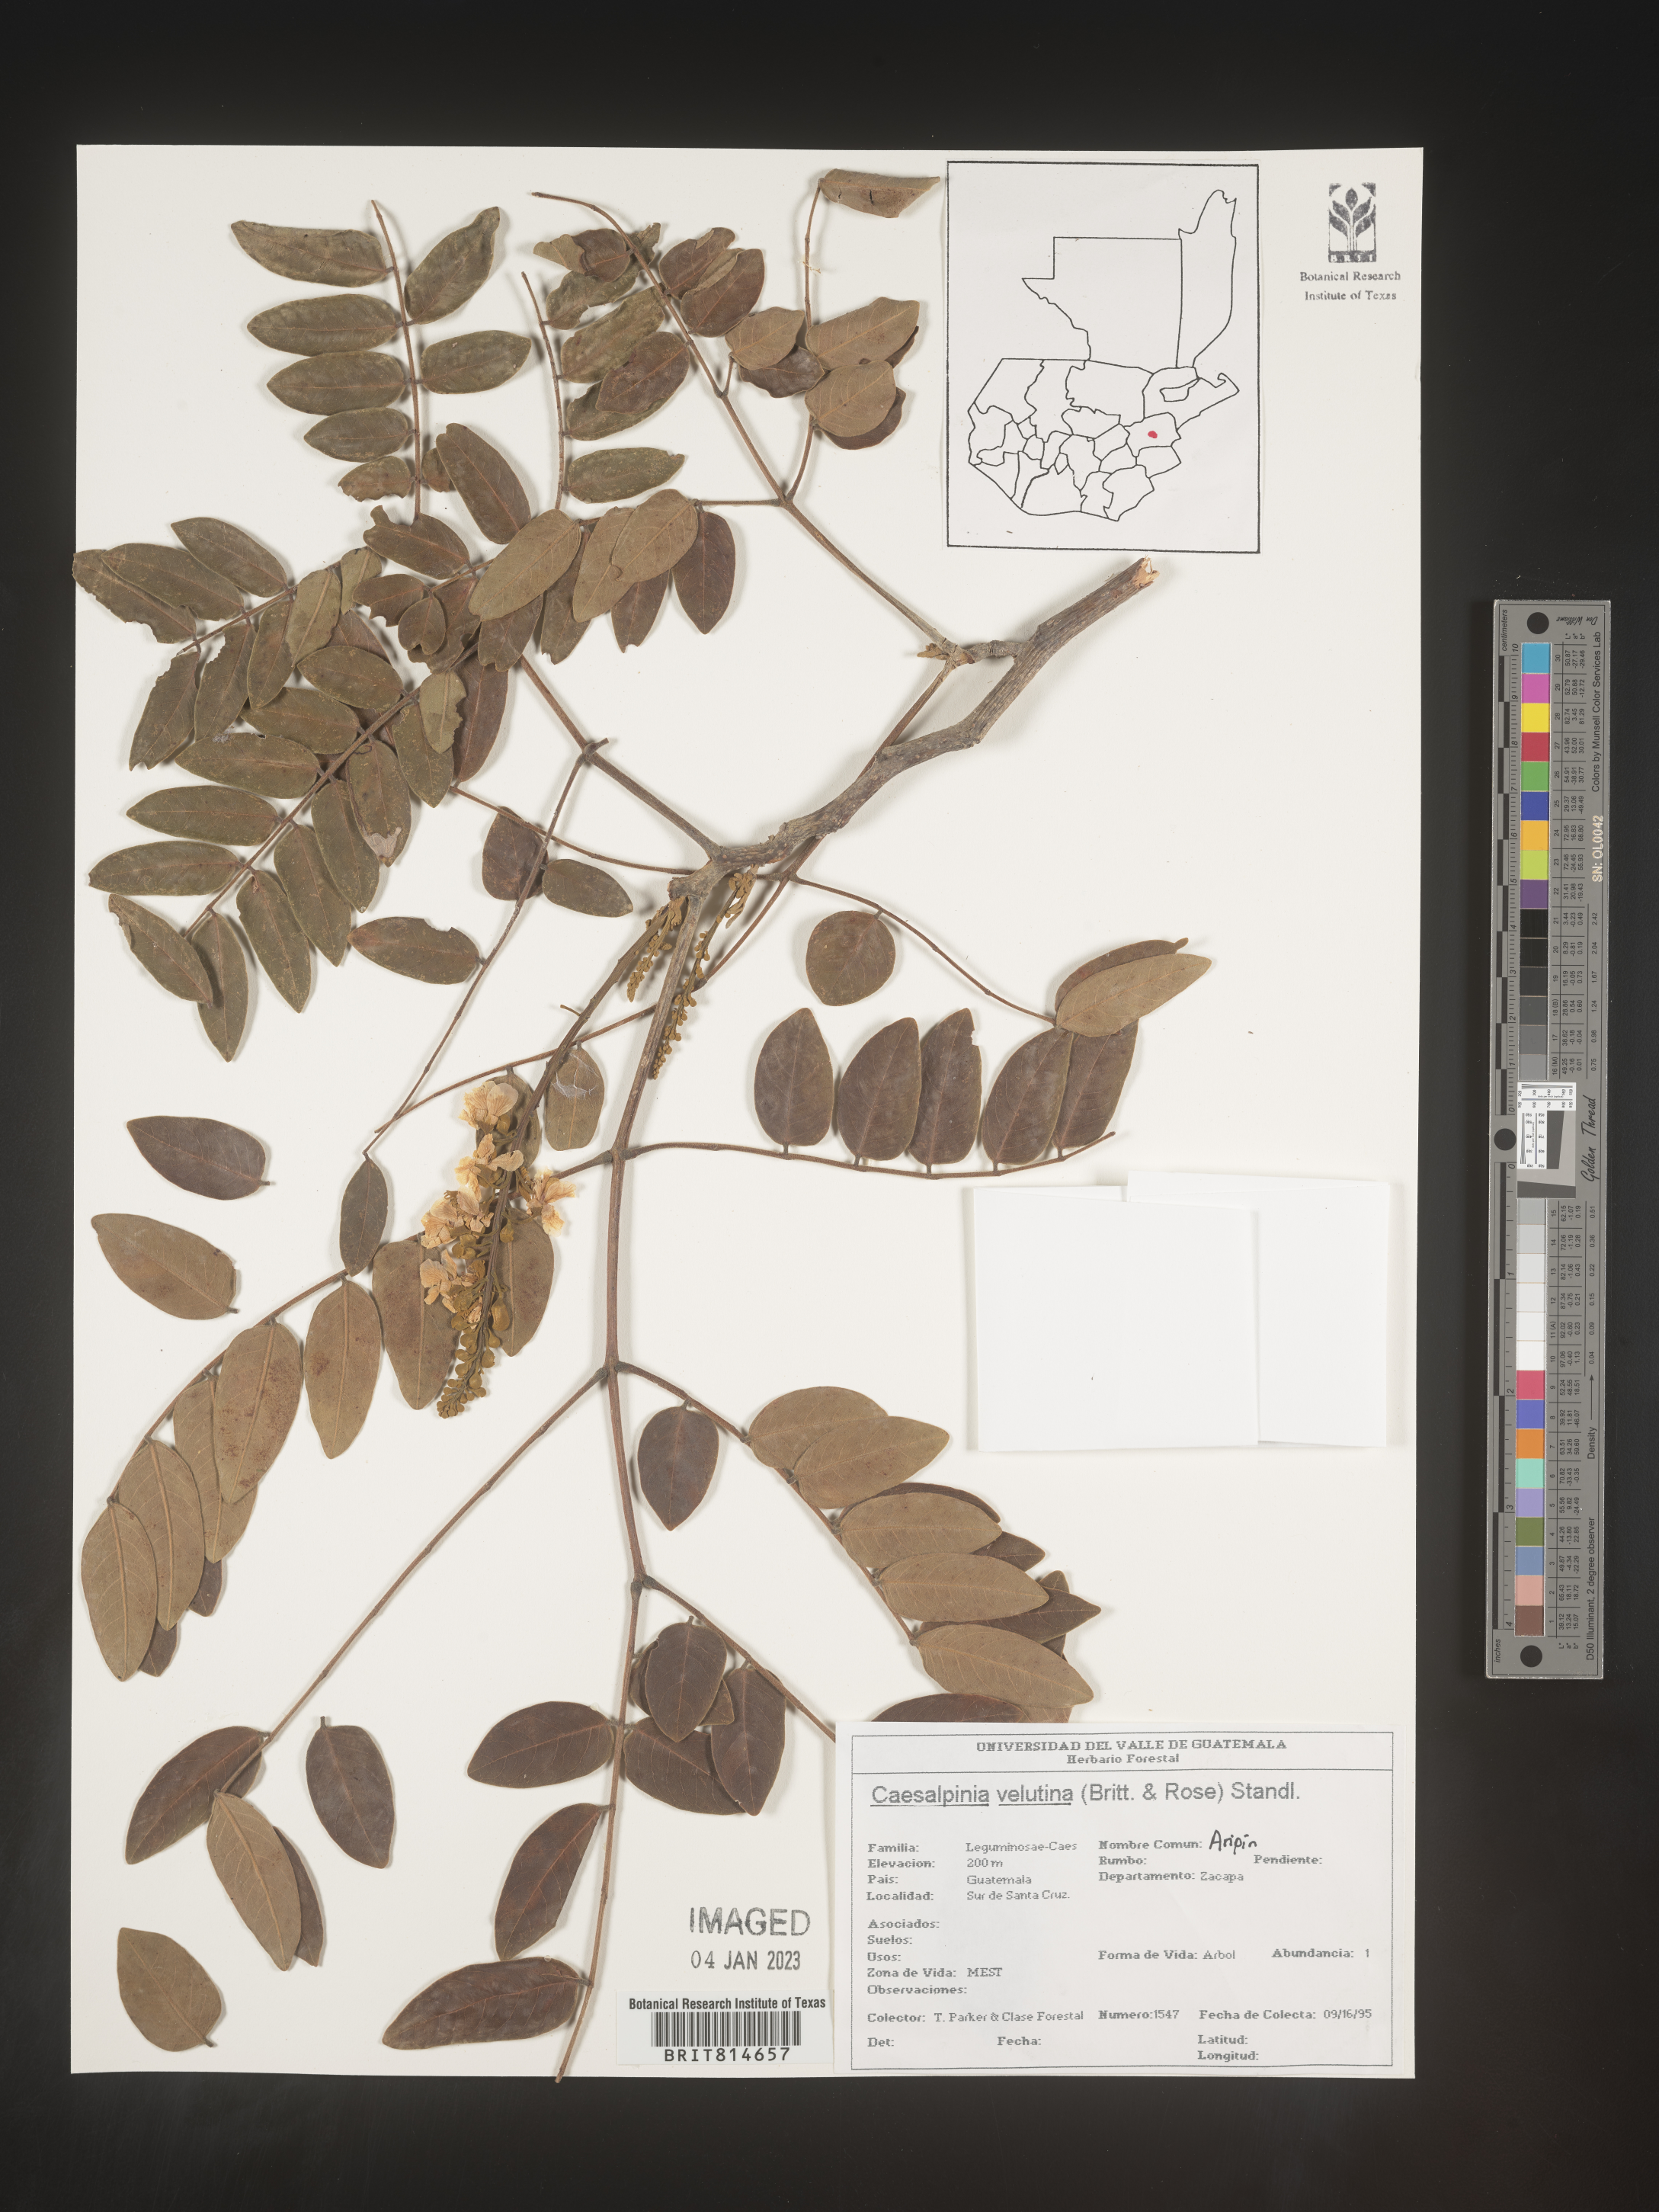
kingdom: Plantae
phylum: Tracheophyta
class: Magnoliopsida
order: Fabales
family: Fabaceae
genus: Caesalpinia
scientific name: Caesalpinia
